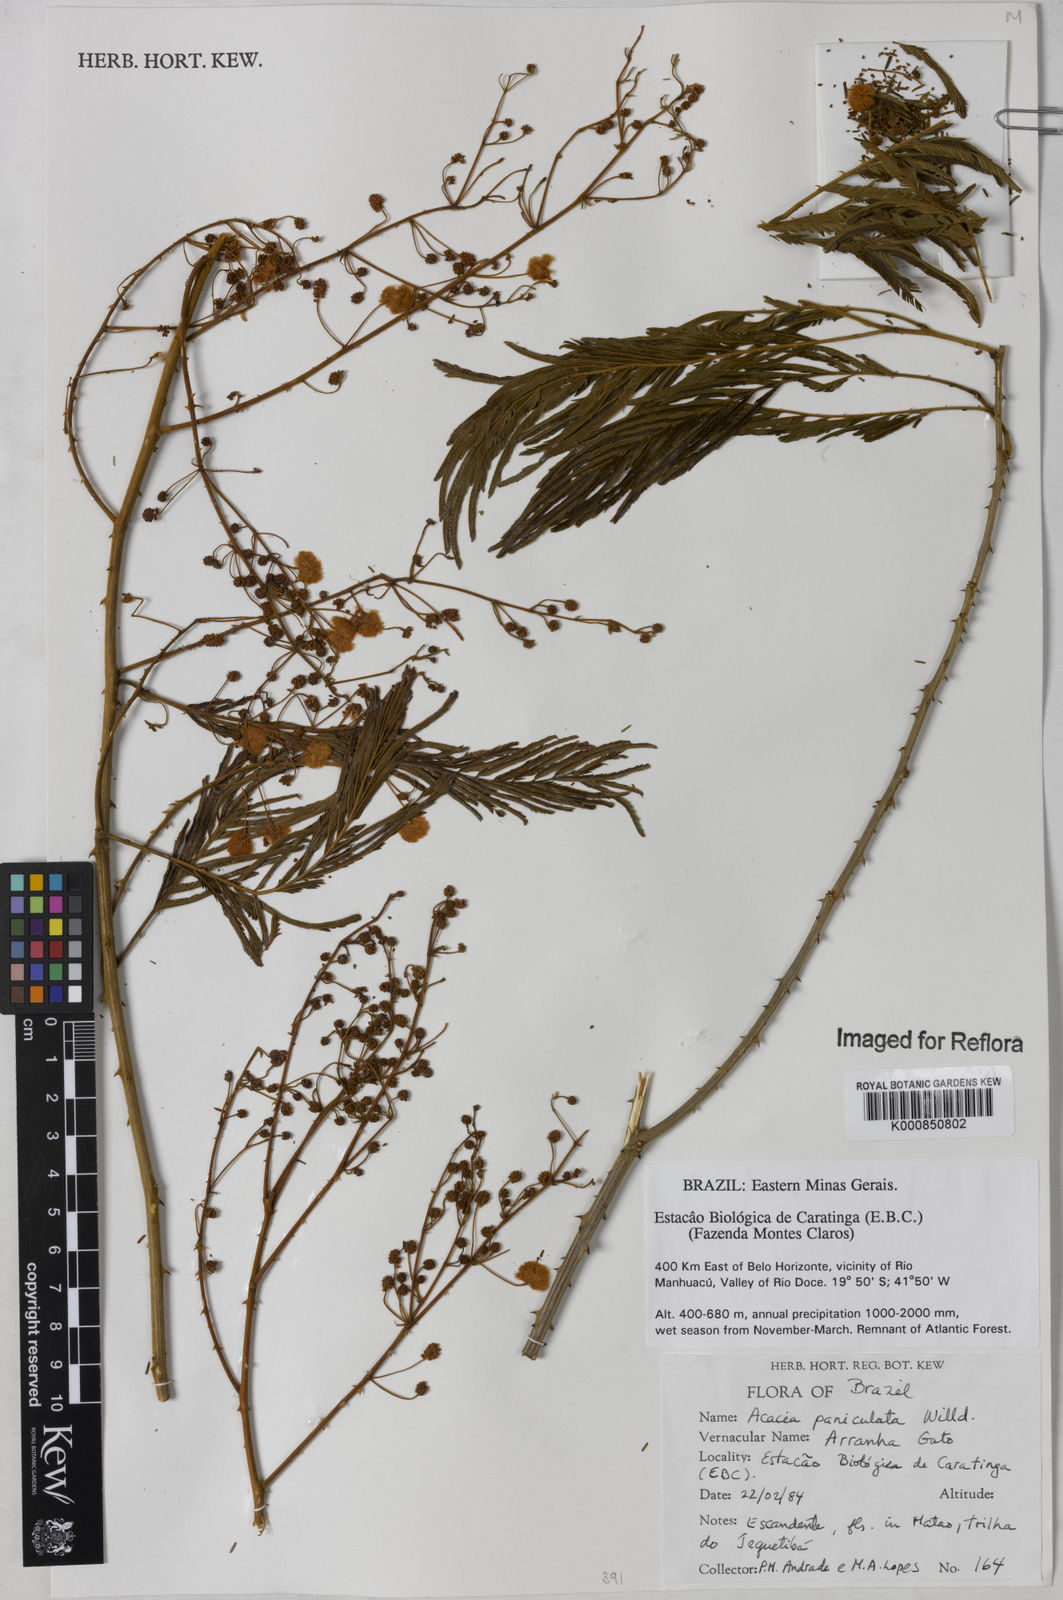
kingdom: Plantae
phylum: Tracheophyta
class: Magnoliopsida
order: Fabales
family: Fabaceae
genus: Senegalia
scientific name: Senegalia tenuifolia
